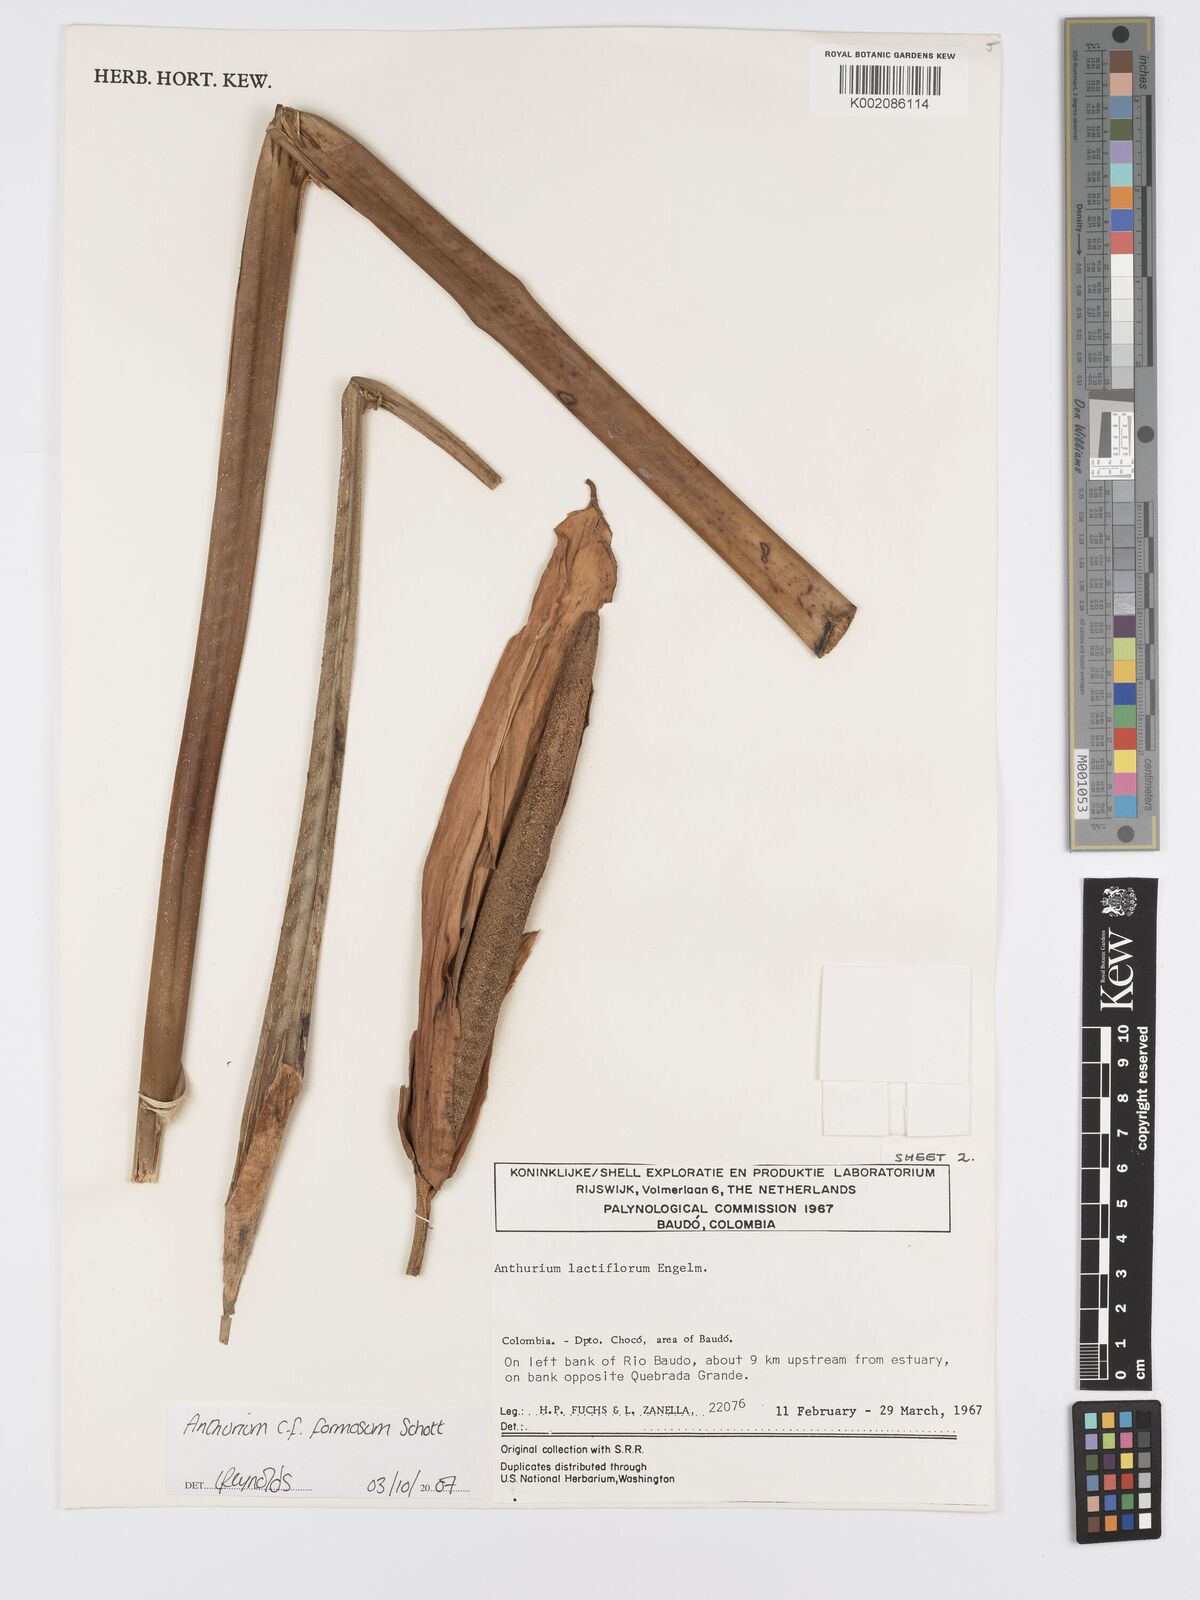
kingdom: Plantae
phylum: Tracheophyta
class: Liliopsida
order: Alismatales
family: Araceae
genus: Anthurium
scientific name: Anthurium formosum
